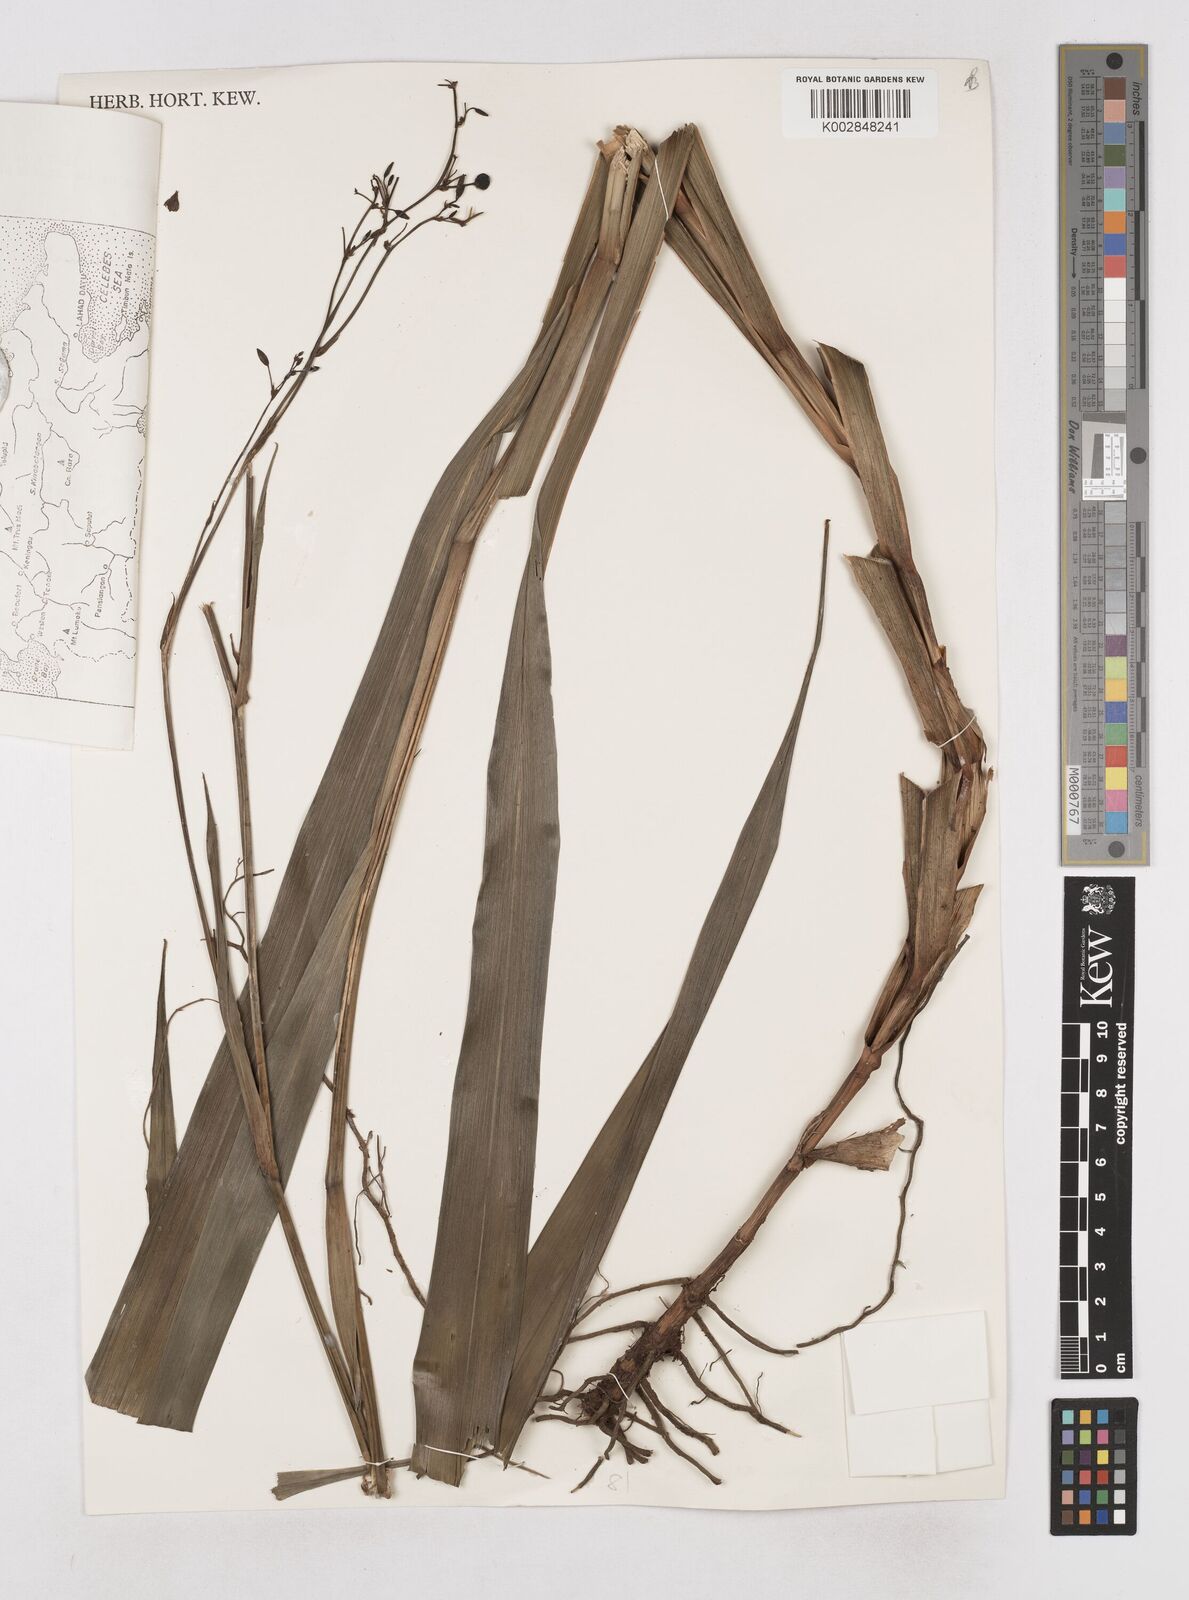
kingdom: Plantae
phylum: Tracheophyta
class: Liliopsida
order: Asparagales
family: Asphodelaceae
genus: Dianella
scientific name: Dianella
